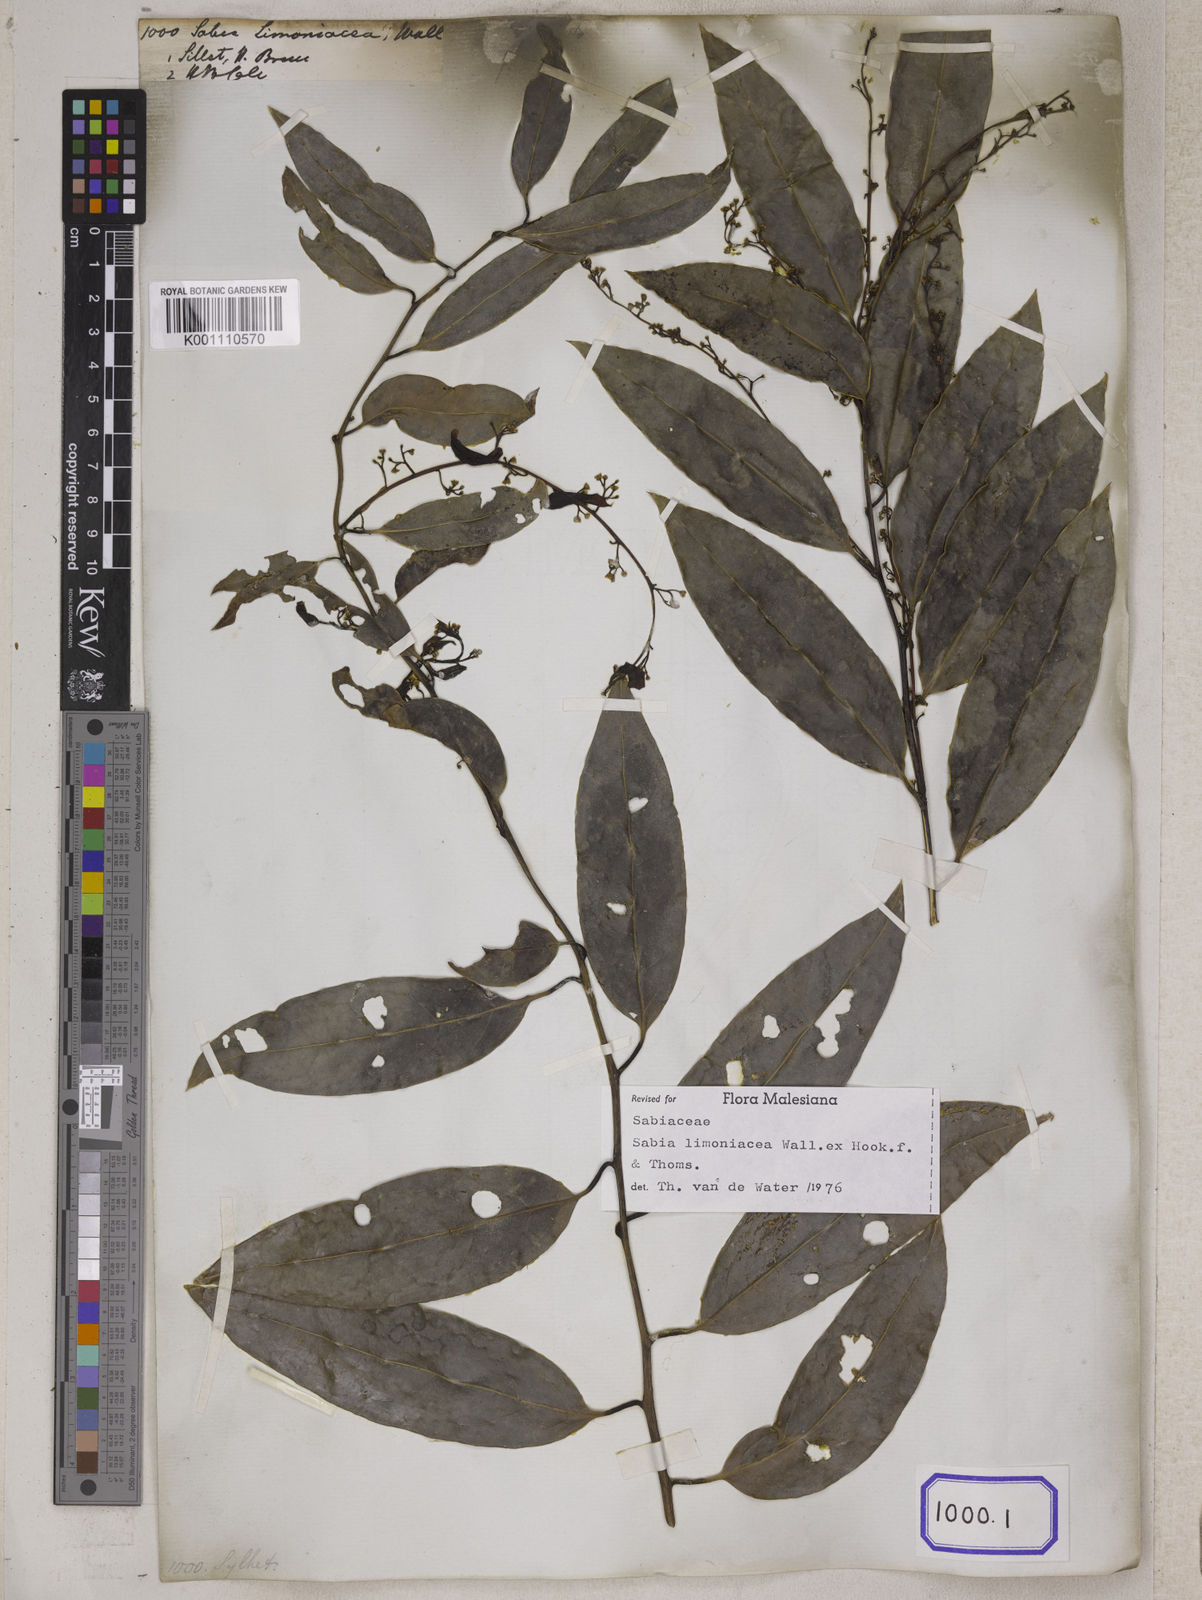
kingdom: Plantae
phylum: Tracheophyta
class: Magnoliopsida
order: Proteales
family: Sabiaceae
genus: Sabia
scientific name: Sabia
